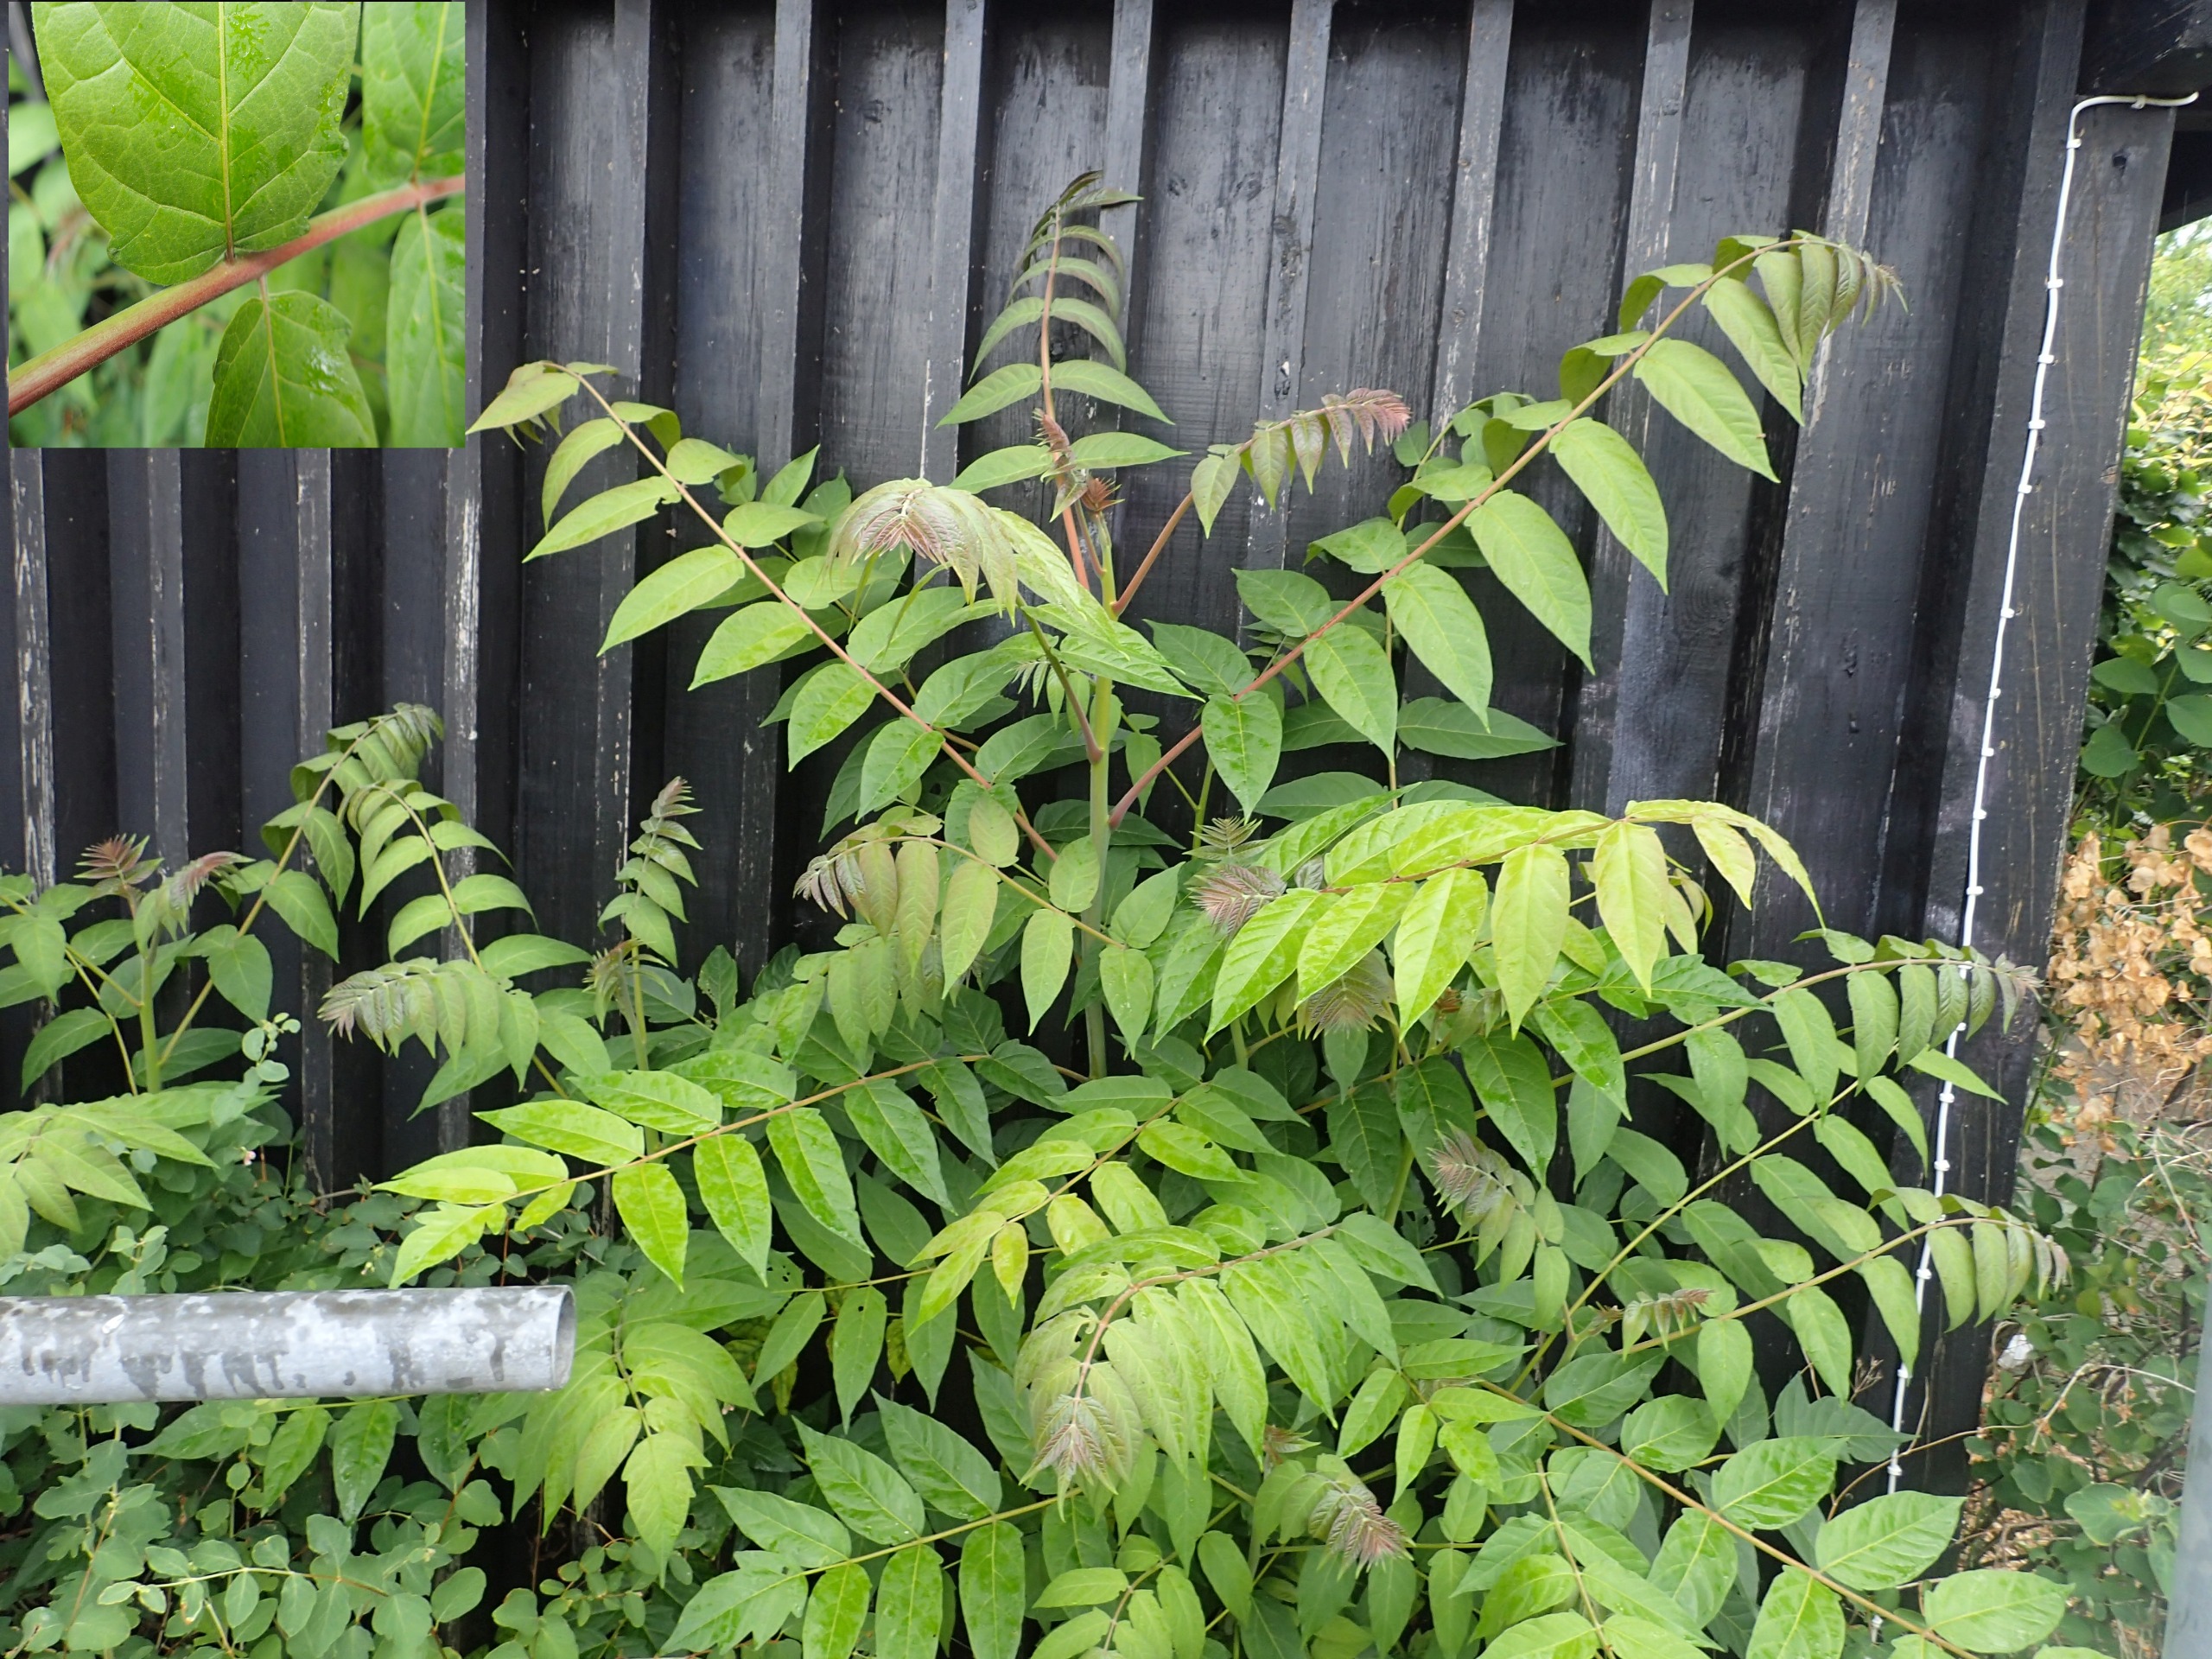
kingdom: Plantae
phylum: Tracheophyta
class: Magnoliopsida
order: Sapindales
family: Simaroubaceae
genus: Ailanthus
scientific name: Ailanthus altissima
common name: Skyrækker
